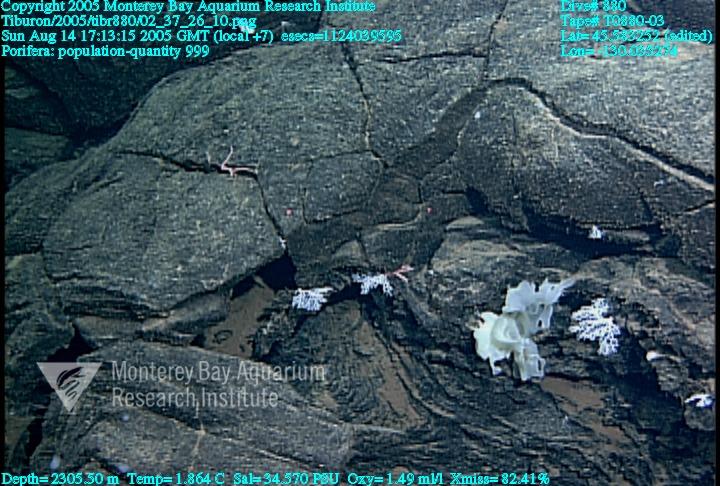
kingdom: Animalia
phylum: Porifera
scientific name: Porifera
